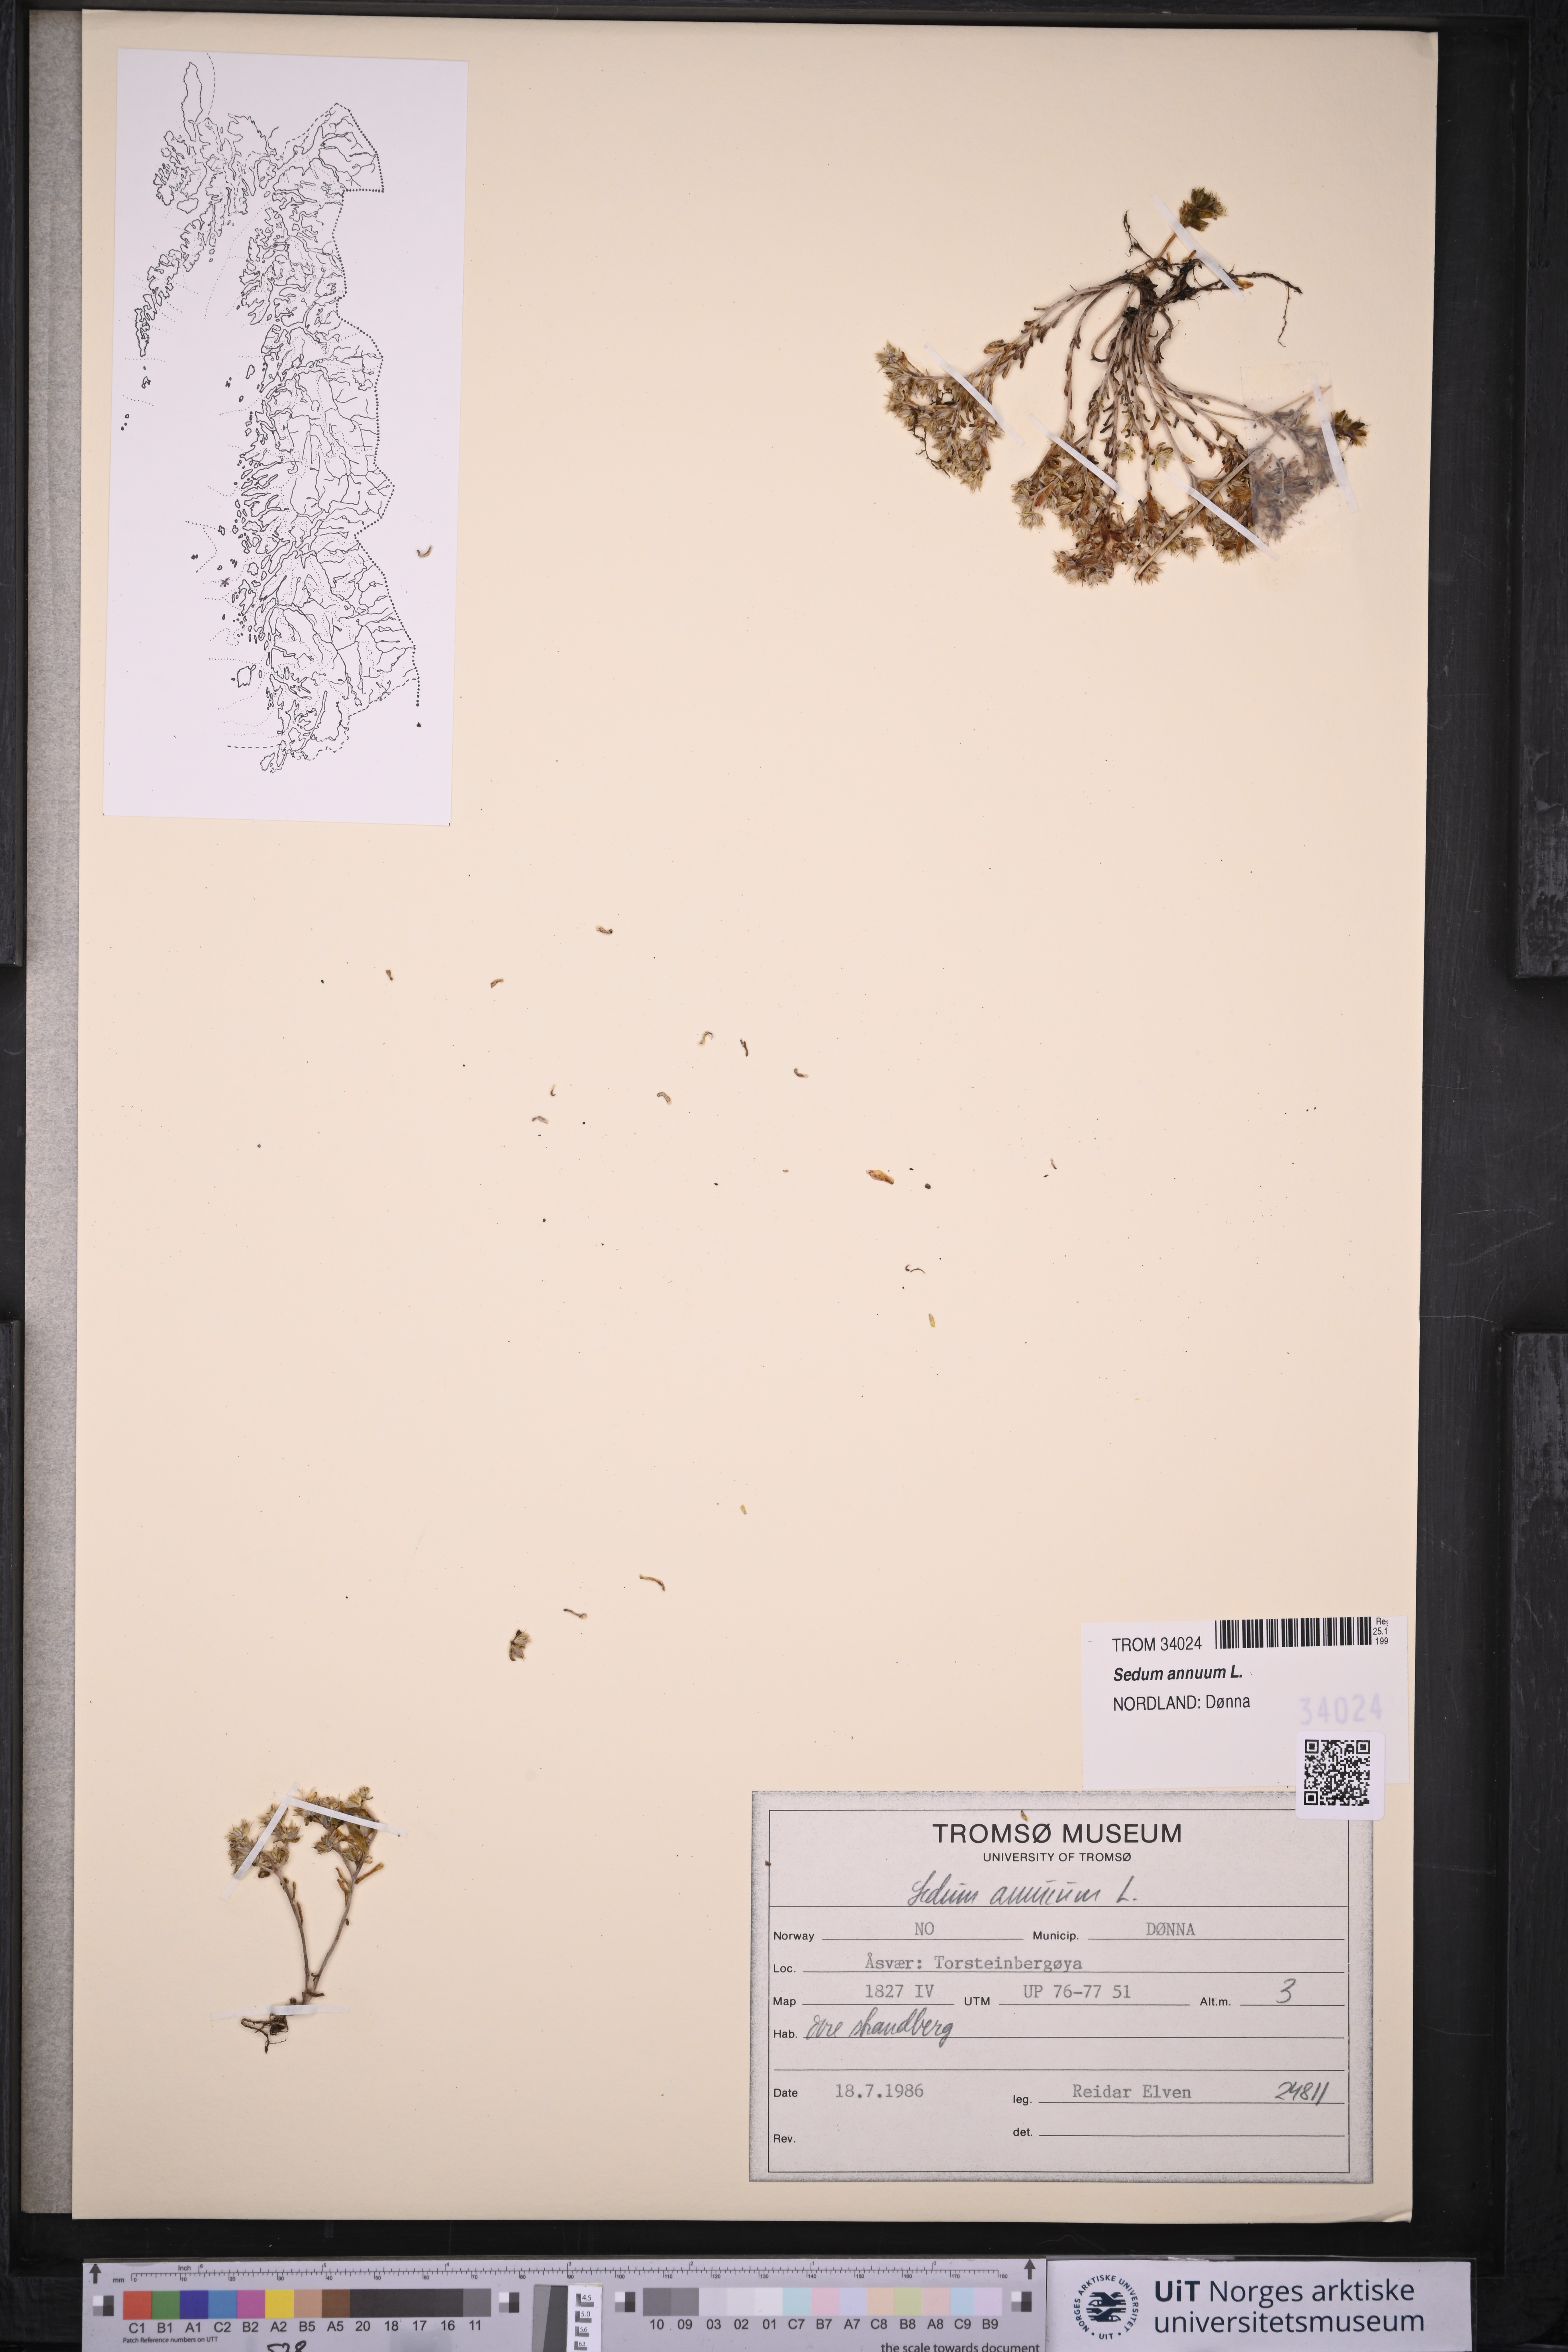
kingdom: Plantae
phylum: Tracheophyta
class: Magnoliopsida
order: Saxifragales
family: Crassulaceae
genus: Sedum
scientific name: Sedum annuum
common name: Annual stonecrop
